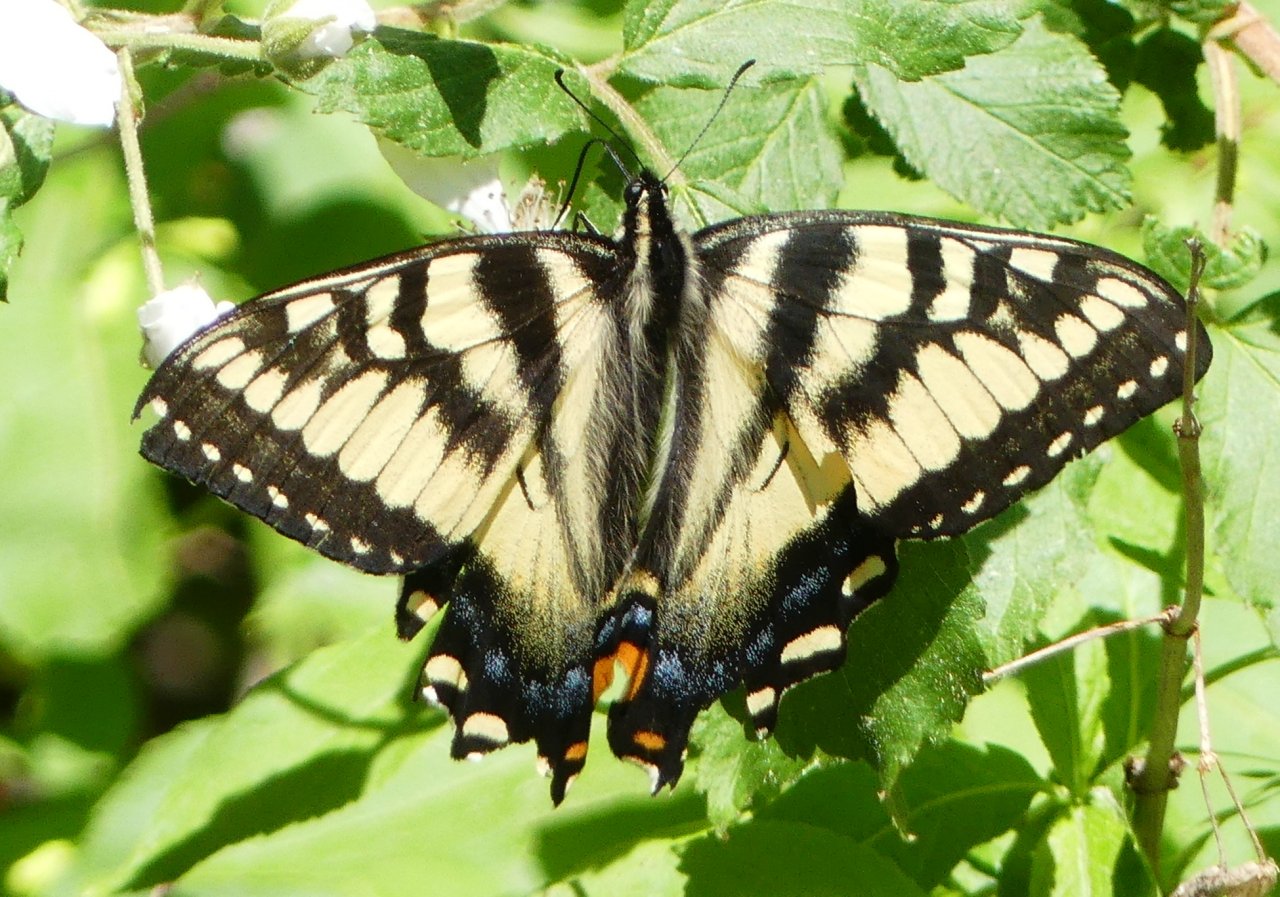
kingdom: Animalia
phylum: Arthropoda
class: Insecta
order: Lepidoptera
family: Papilionidae
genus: Pterourus
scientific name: Pterourus canadensis
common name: Canadian Tiger Swallowtail
